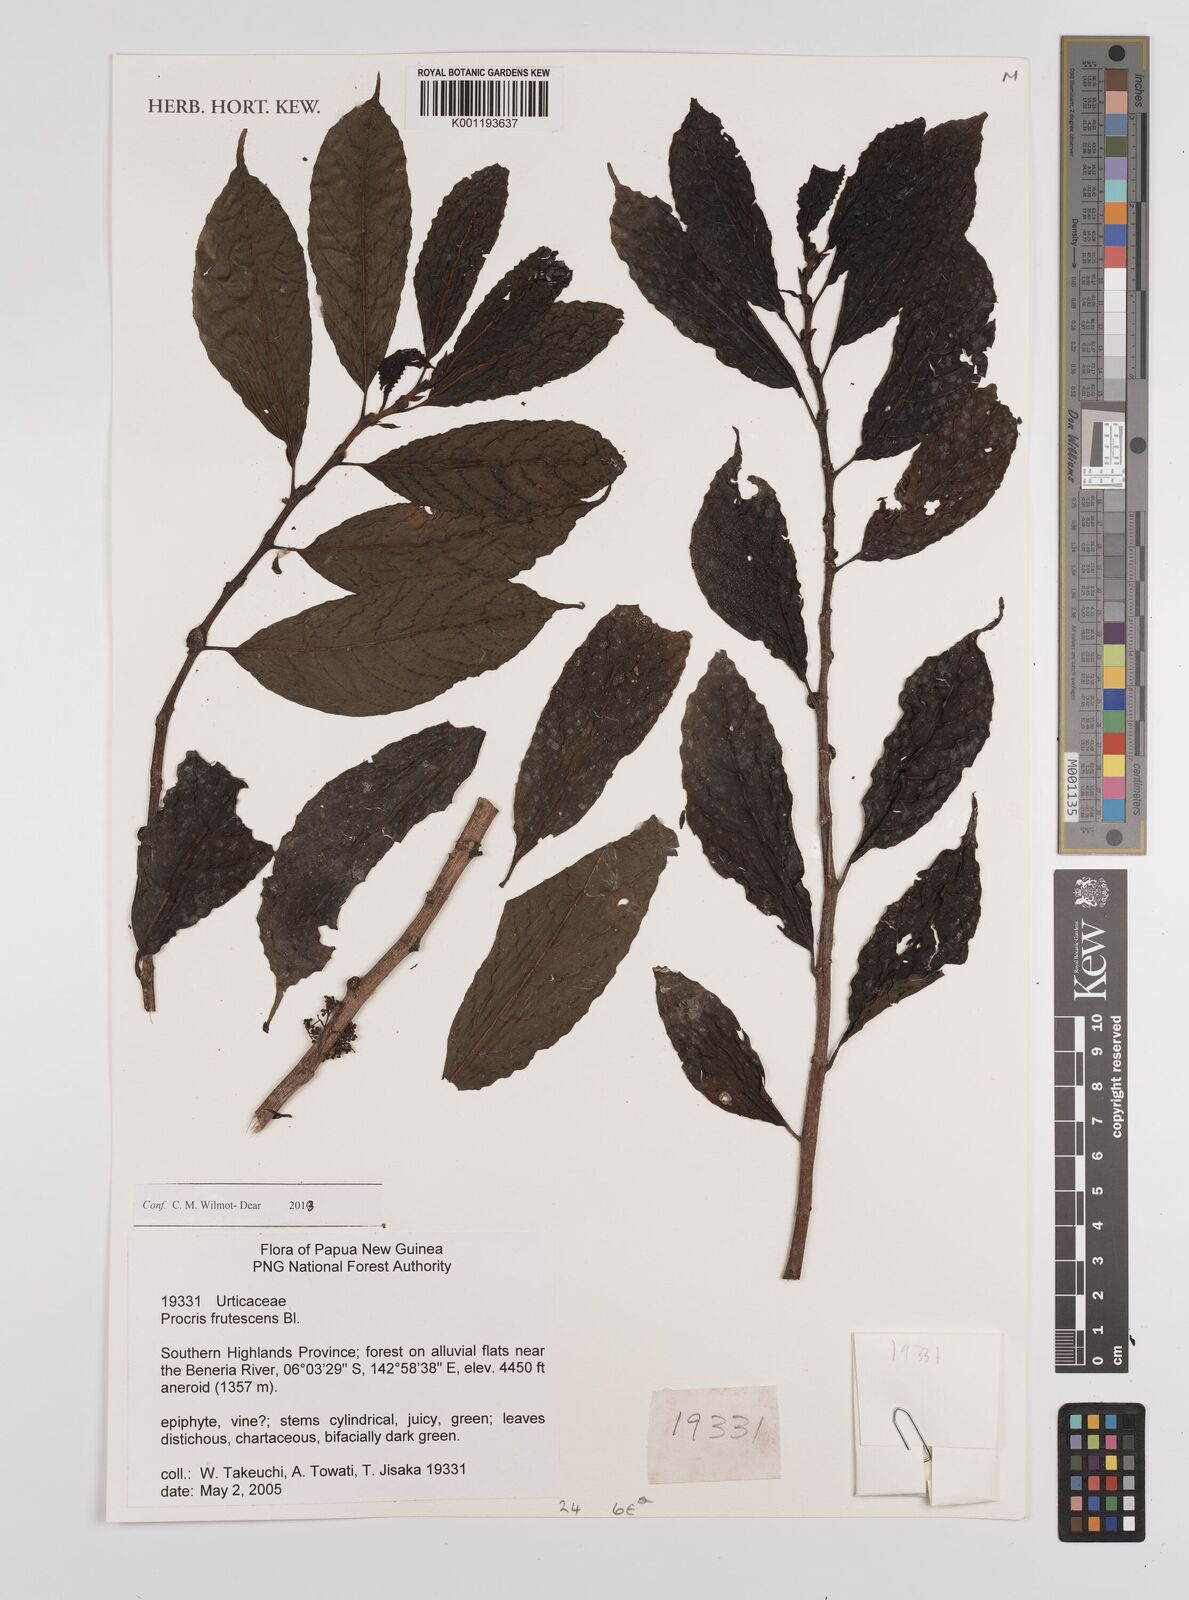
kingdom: Plantae
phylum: Tracheophyta
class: Magnoliopsida
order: Rosales
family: Urticaceae
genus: Procris
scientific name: Procris frutescens
